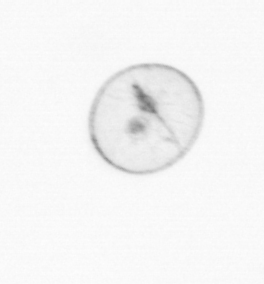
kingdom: Chromista
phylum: Myzozoa
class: Dinophyceae
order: Noctilucales
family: Noctilucaceae
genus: Noctiluca
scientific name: Noctiluca scintillans
